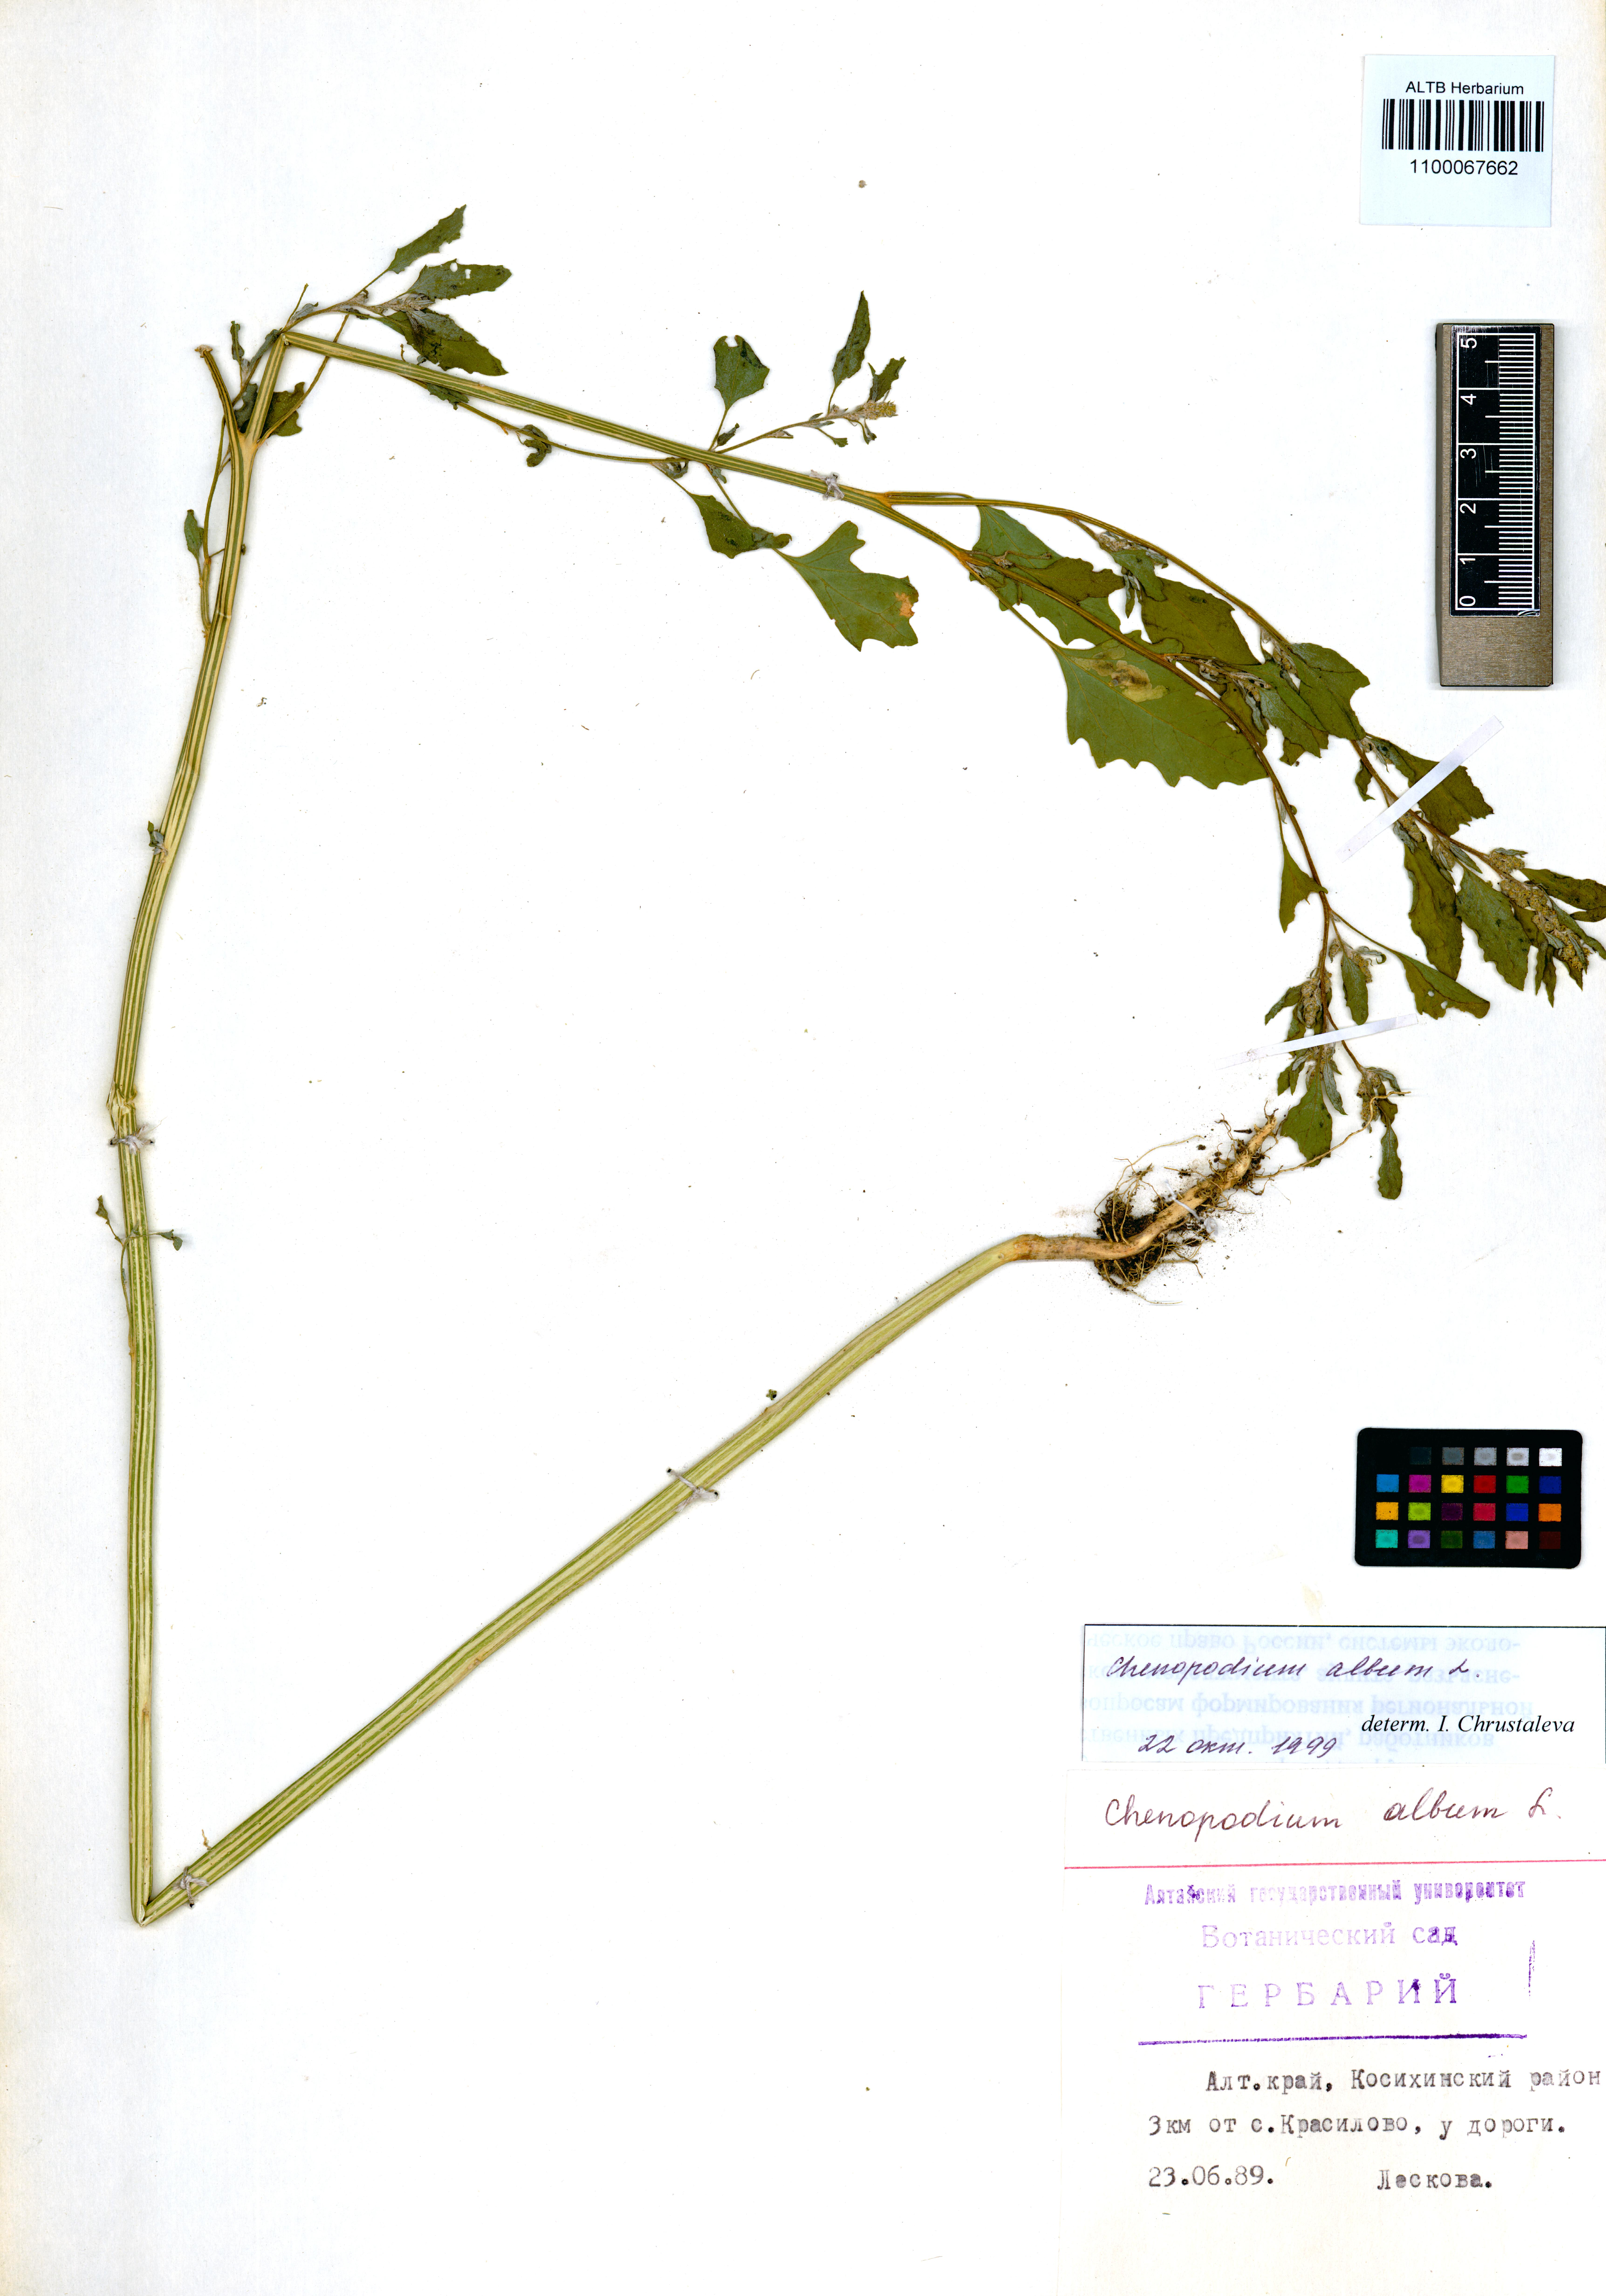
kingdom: Plantae
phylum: Tracheophyta
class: Magnoliopsida
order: Caryophyllales
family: Amaranthaceae
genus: Chenopodium
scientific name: Chenopodium album
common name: Fat-hen
